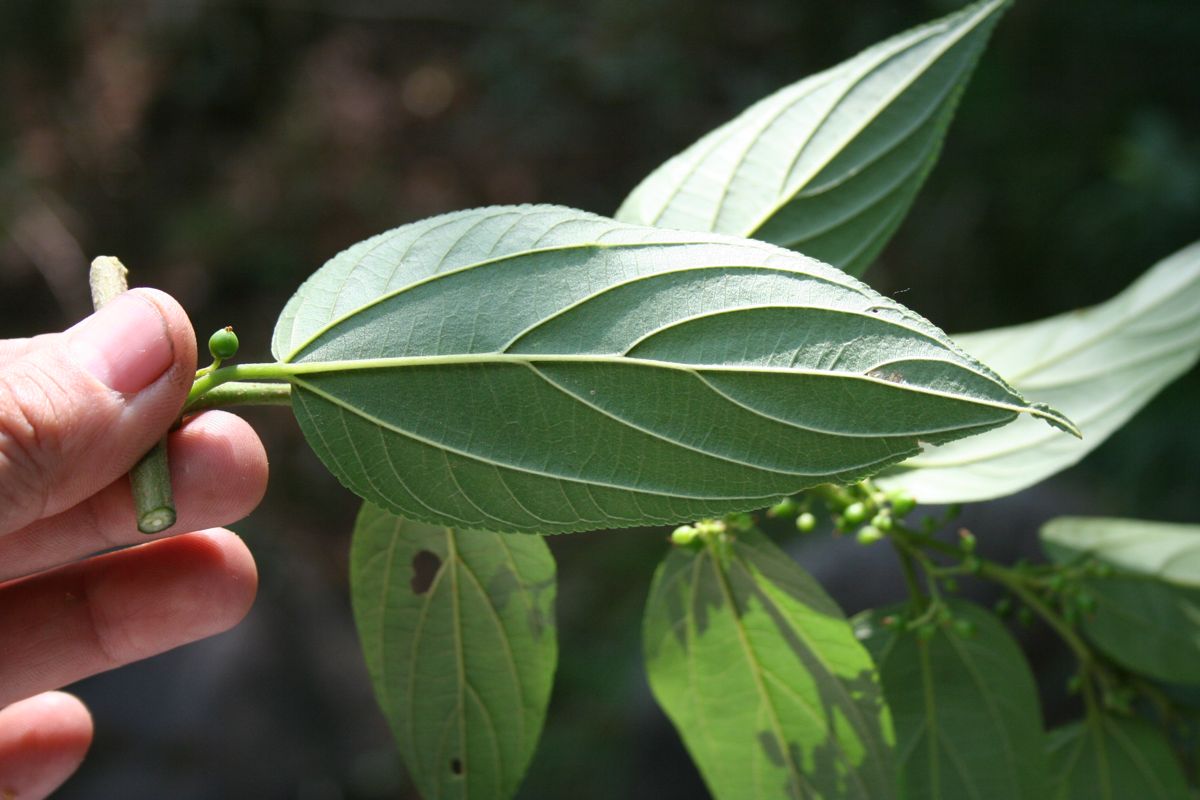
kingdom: Plantae
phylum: Tracheophyta
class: Magnoliopsida
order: Rosales
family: Cannabaceae
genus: Trema
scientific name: Trema micranthum
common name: Jamaican nettletree
